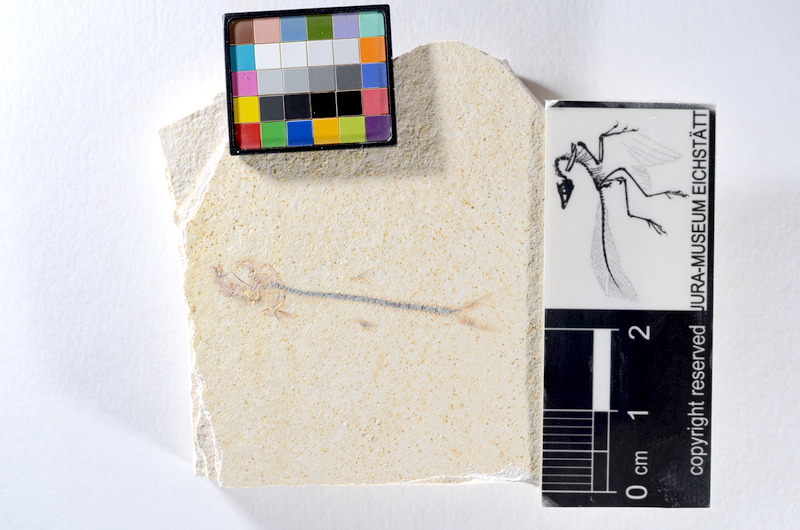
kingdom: Animalia
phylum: Chordata
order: Salmoniformes
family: Orthogonikleithridae
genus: Orthogonikleithrus
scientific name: Orthogonikleithrus hoelli
